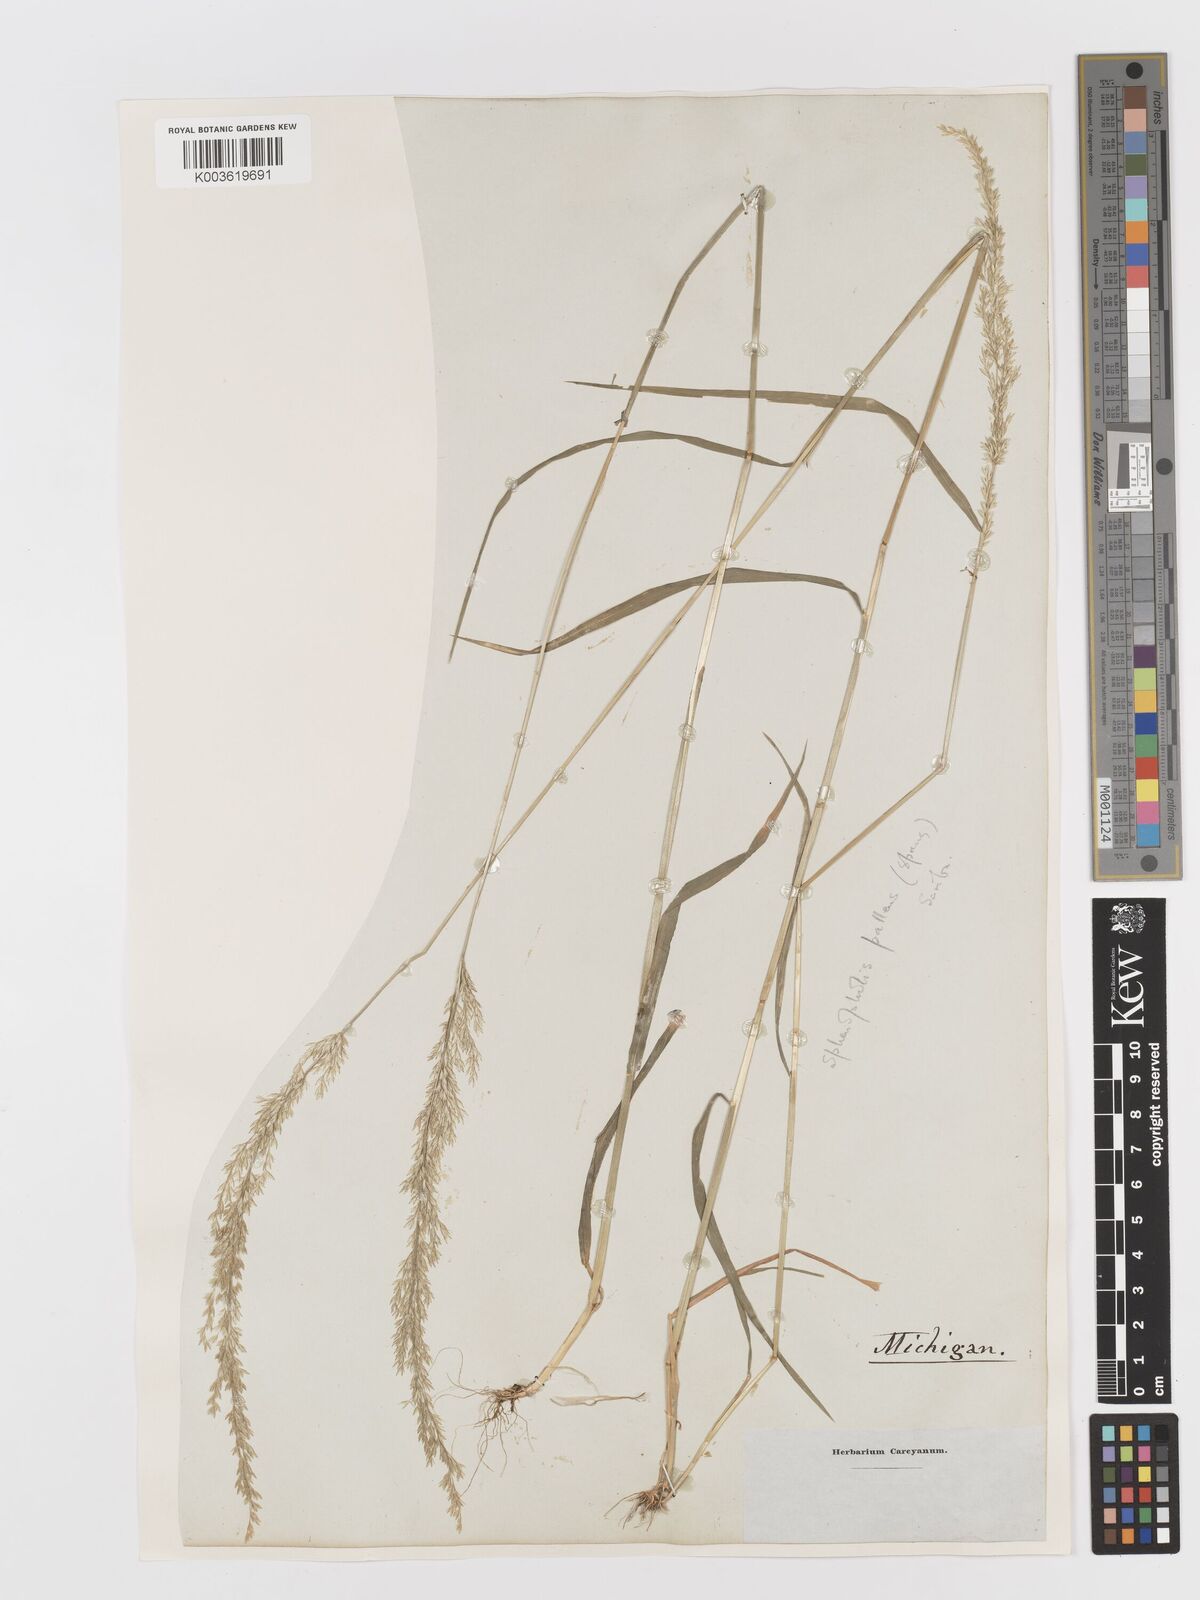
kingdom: Plantae
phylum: Tracheophyta
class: Liliopsida
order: Poales
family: Poaceae
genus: Sphenopholis
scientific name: Sphenopholis obtusata
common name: Prairie grass
